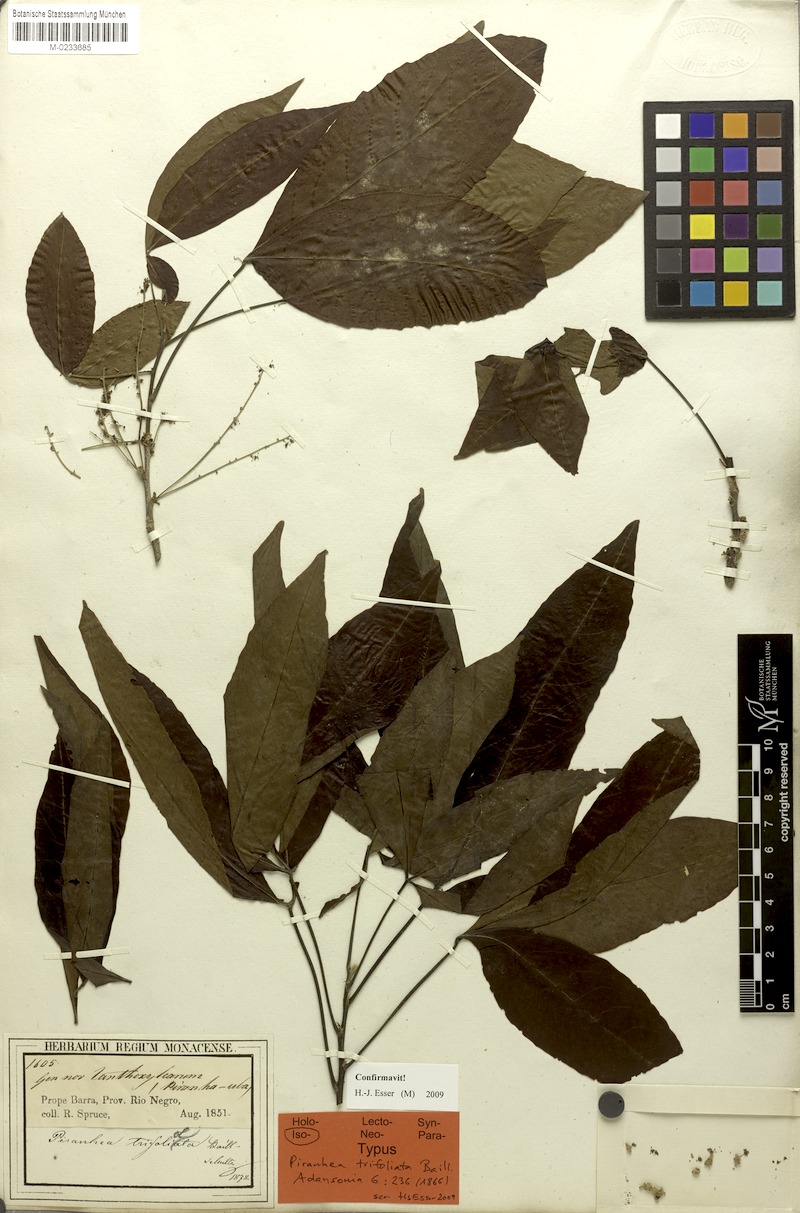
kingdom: Plantae
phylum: Tracheophyta
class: Magnoliopsida
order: Malpighiales
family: Picrodendraceae
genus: Piranhea
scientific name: Piranhea trifoliata
